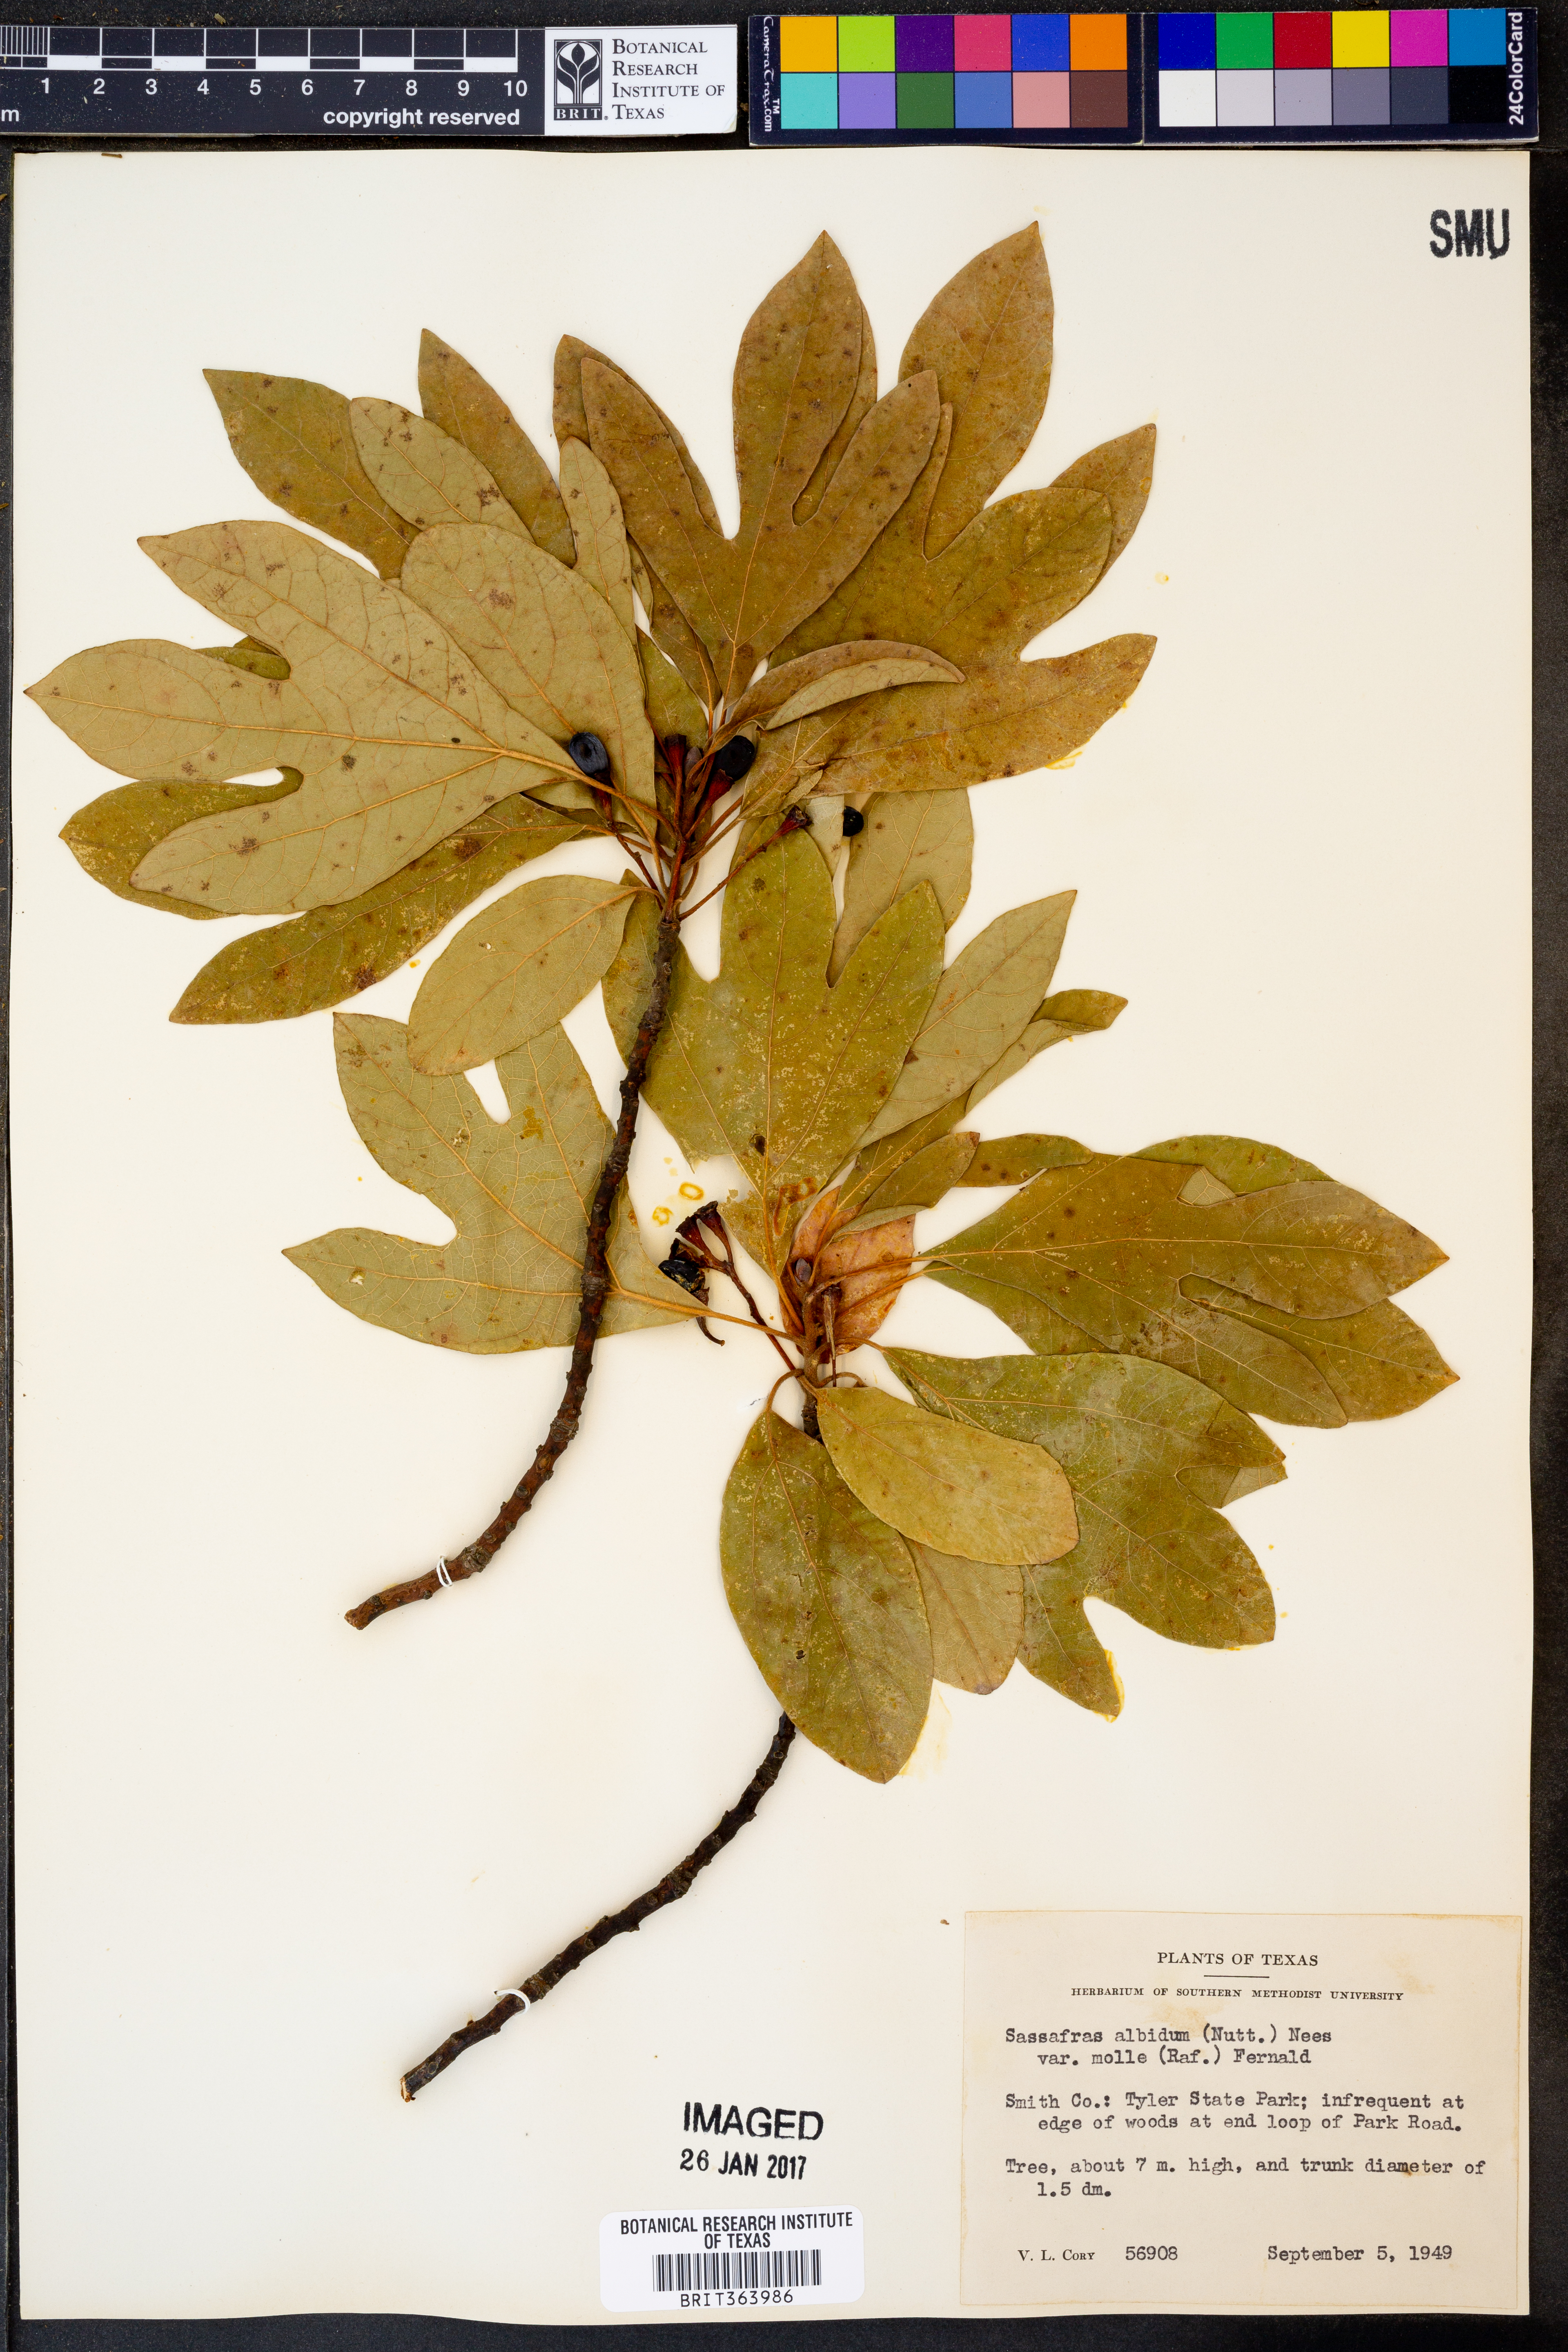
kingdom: Plantae
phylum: Tracheophyta
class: Magnoliopsida
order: Laurales
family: Lauraceae
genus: Sassafras
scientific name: Sassafras albidum
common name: Sassafras
